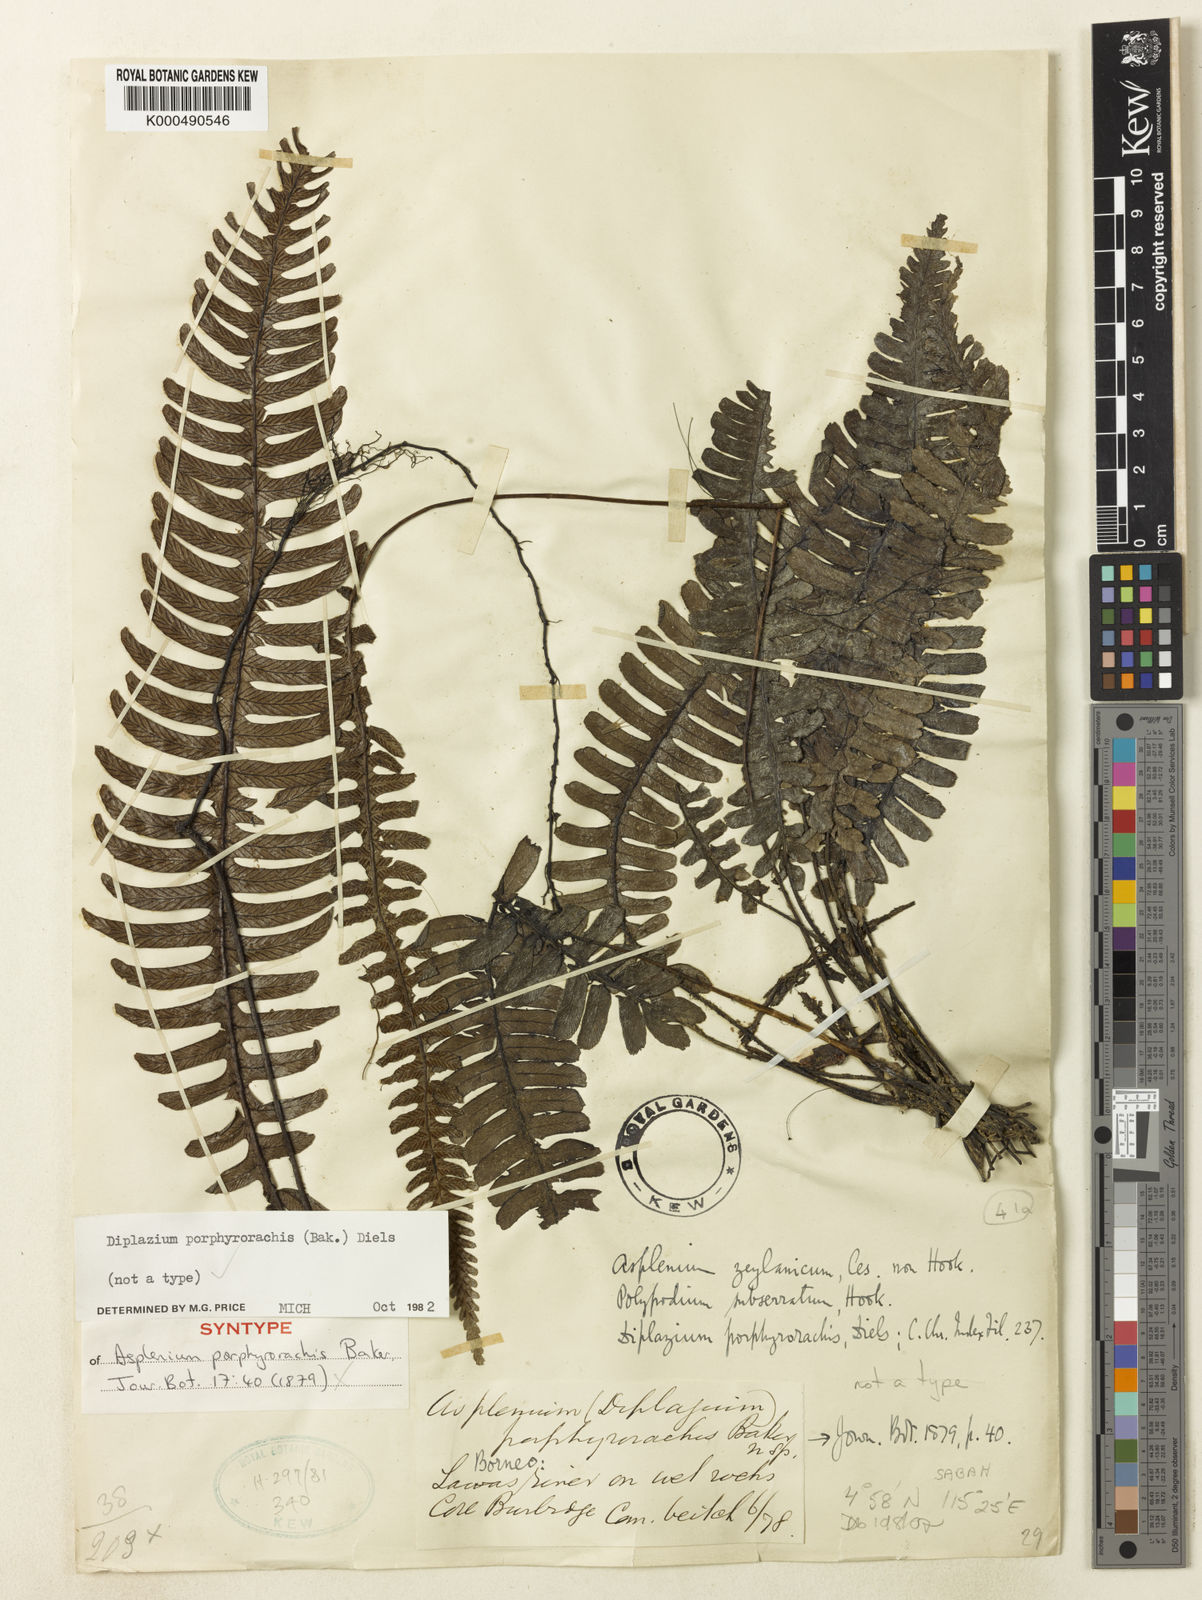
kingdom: Plantae
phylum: Tracheophyta
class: Polypodiopsida
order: Polypodiales
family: Athyriaceae
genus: Diplazium
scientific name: Diplazium porphyrorachis
